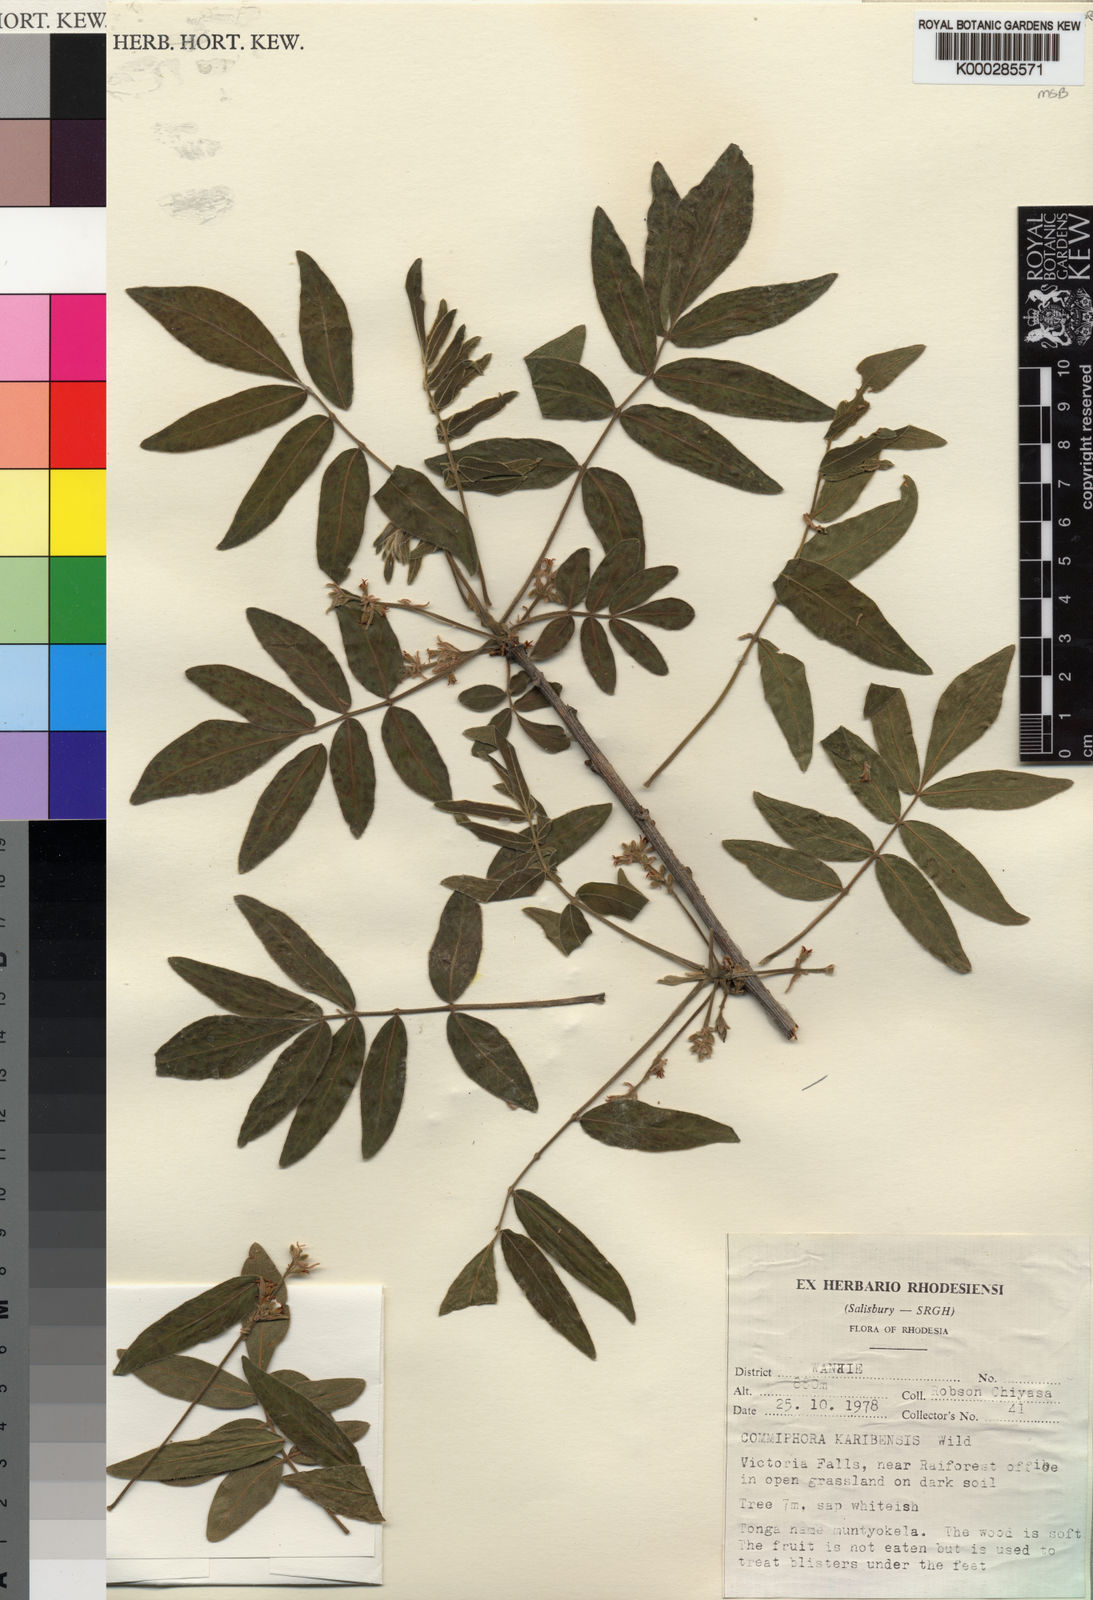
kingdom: Plantae
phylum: Tracheophyta
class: Magnoliopsida
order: Sapindales
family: Burseraceae
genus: Commiphora
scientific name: Commiphora karibensis
